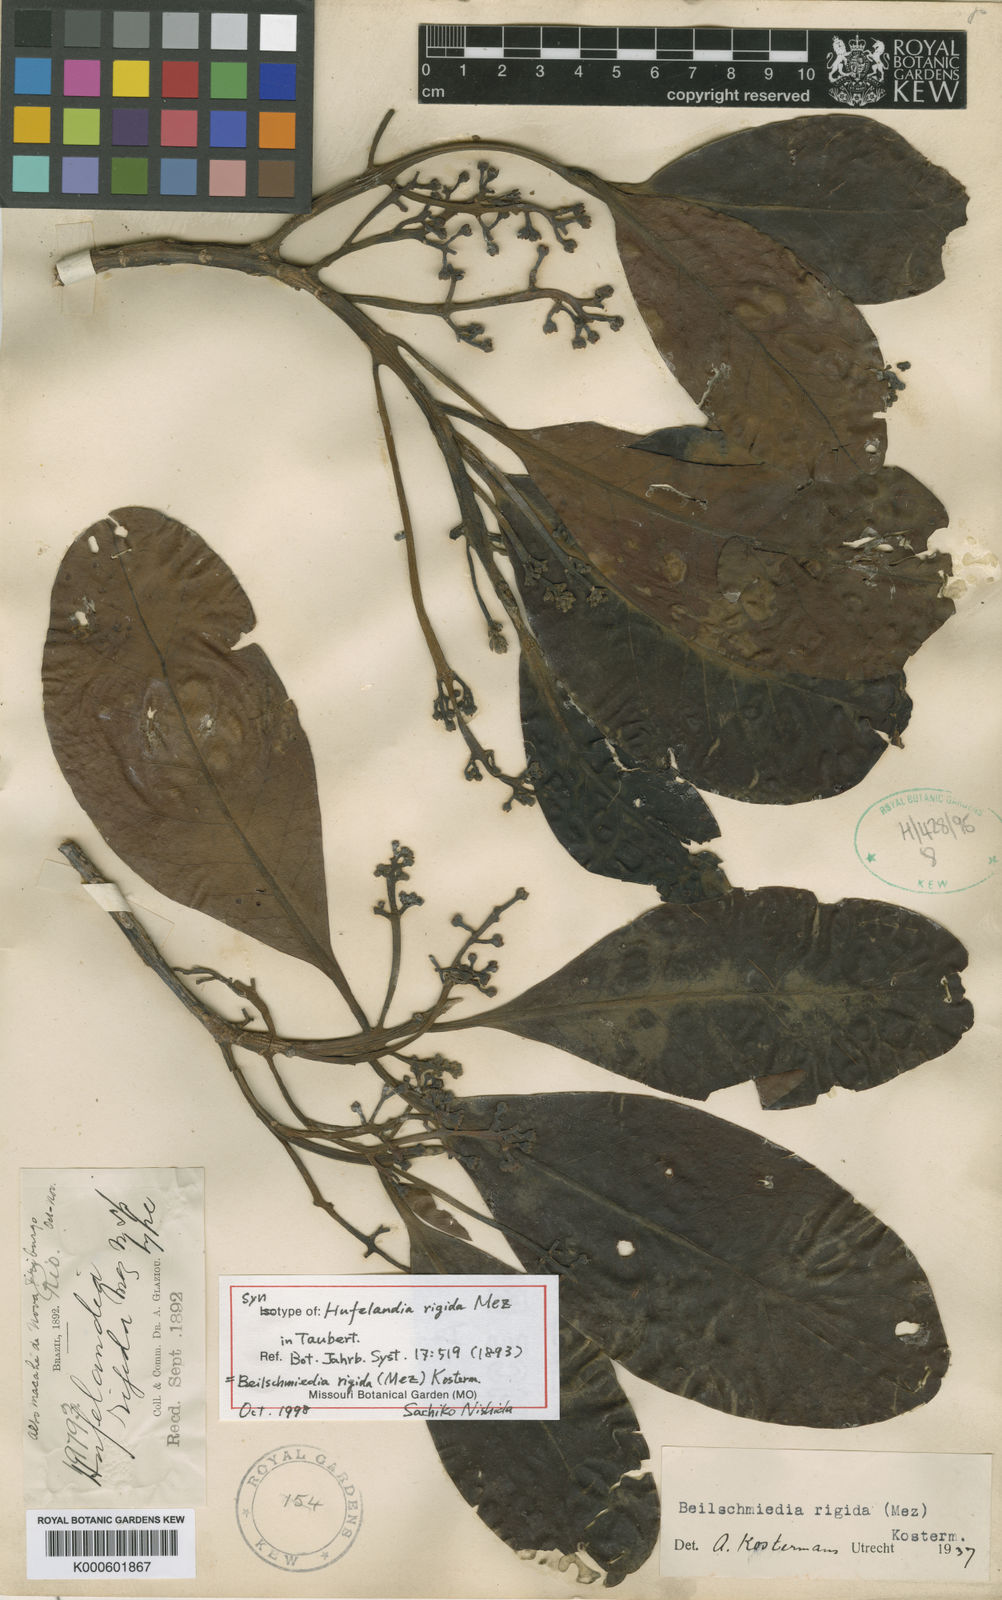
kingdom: Plantae
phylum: Tracheophyta
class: Magnoliopsida
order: Laurales
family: Lauraceae
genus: Beilschmiedia
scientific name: Beilschmiedia rigida
